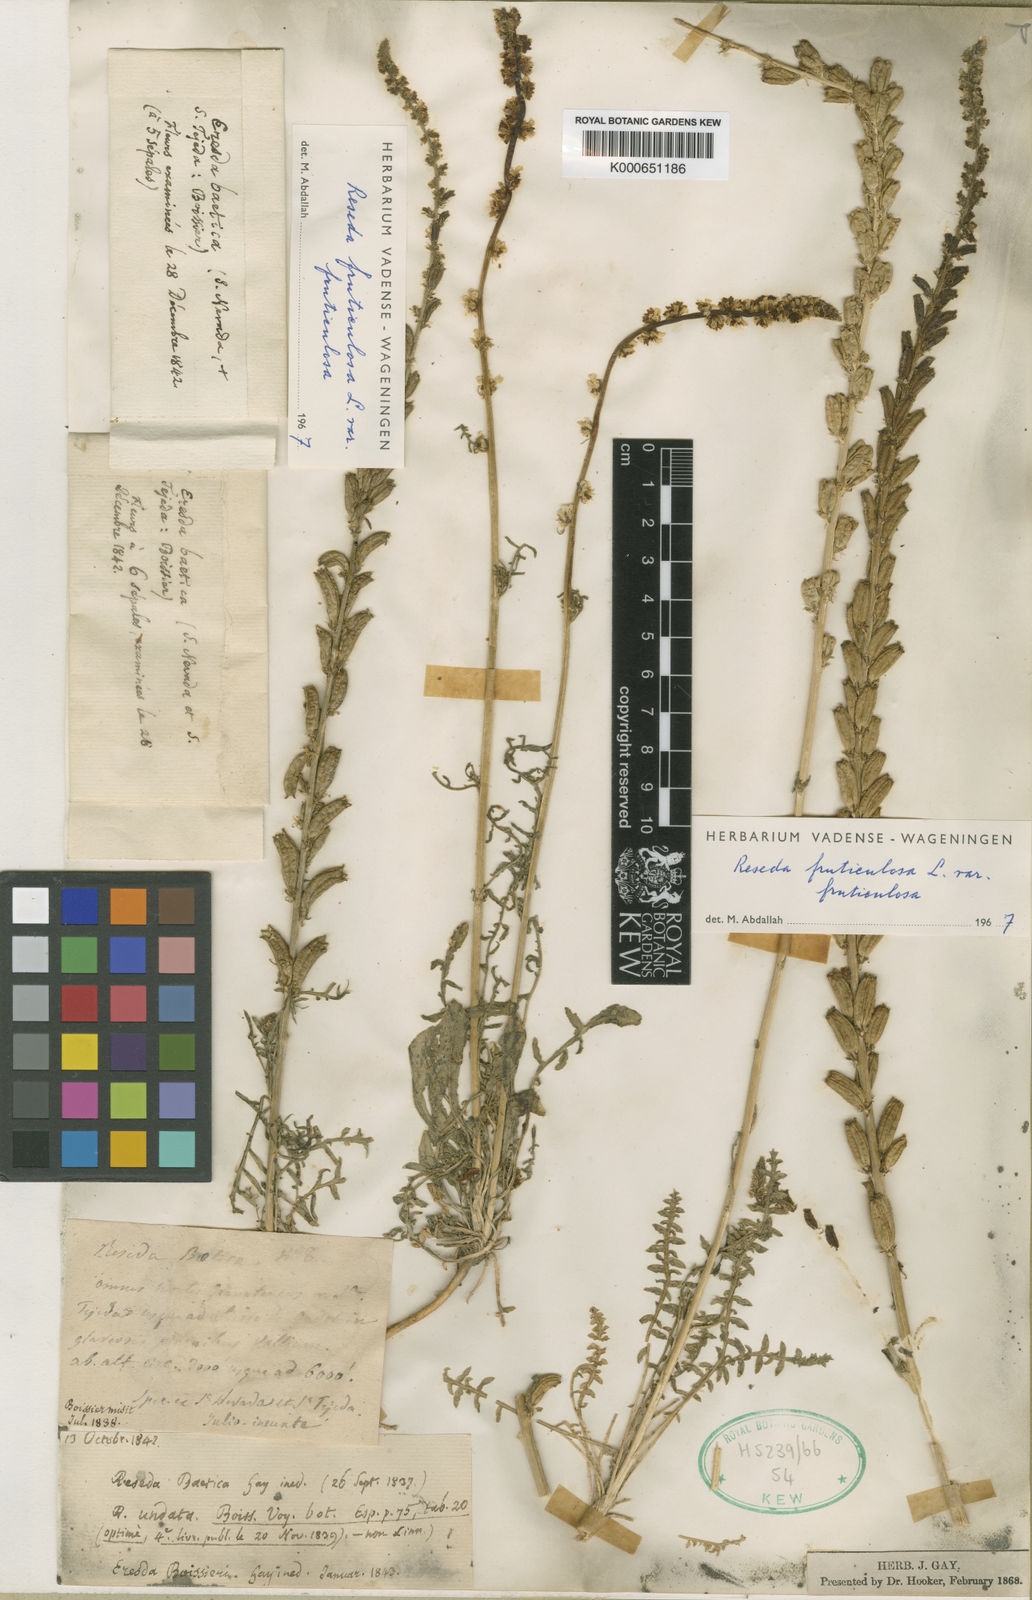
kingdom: Plantae
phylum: Tracheophyta
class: Magnoliopsida
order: Brassicales
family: Resedaceae
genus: Reseda
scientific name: Reseda alba
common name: White mignonette
